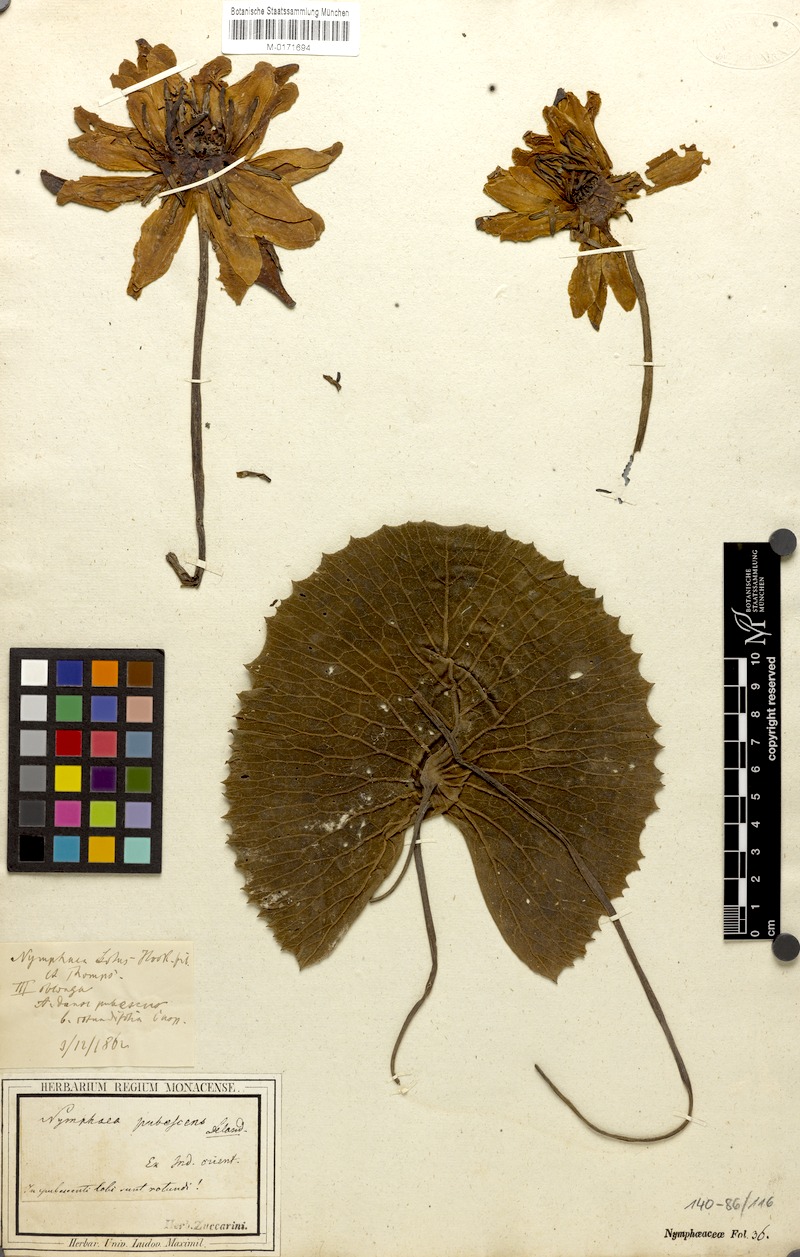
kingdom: Plantae
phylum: Tracheophyta
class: Magnoliopsida
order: Nymphaeales
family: Nymphaeaceae
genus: Nymphaea
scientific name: Nymphaea pubescens
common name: Hairy water lily
